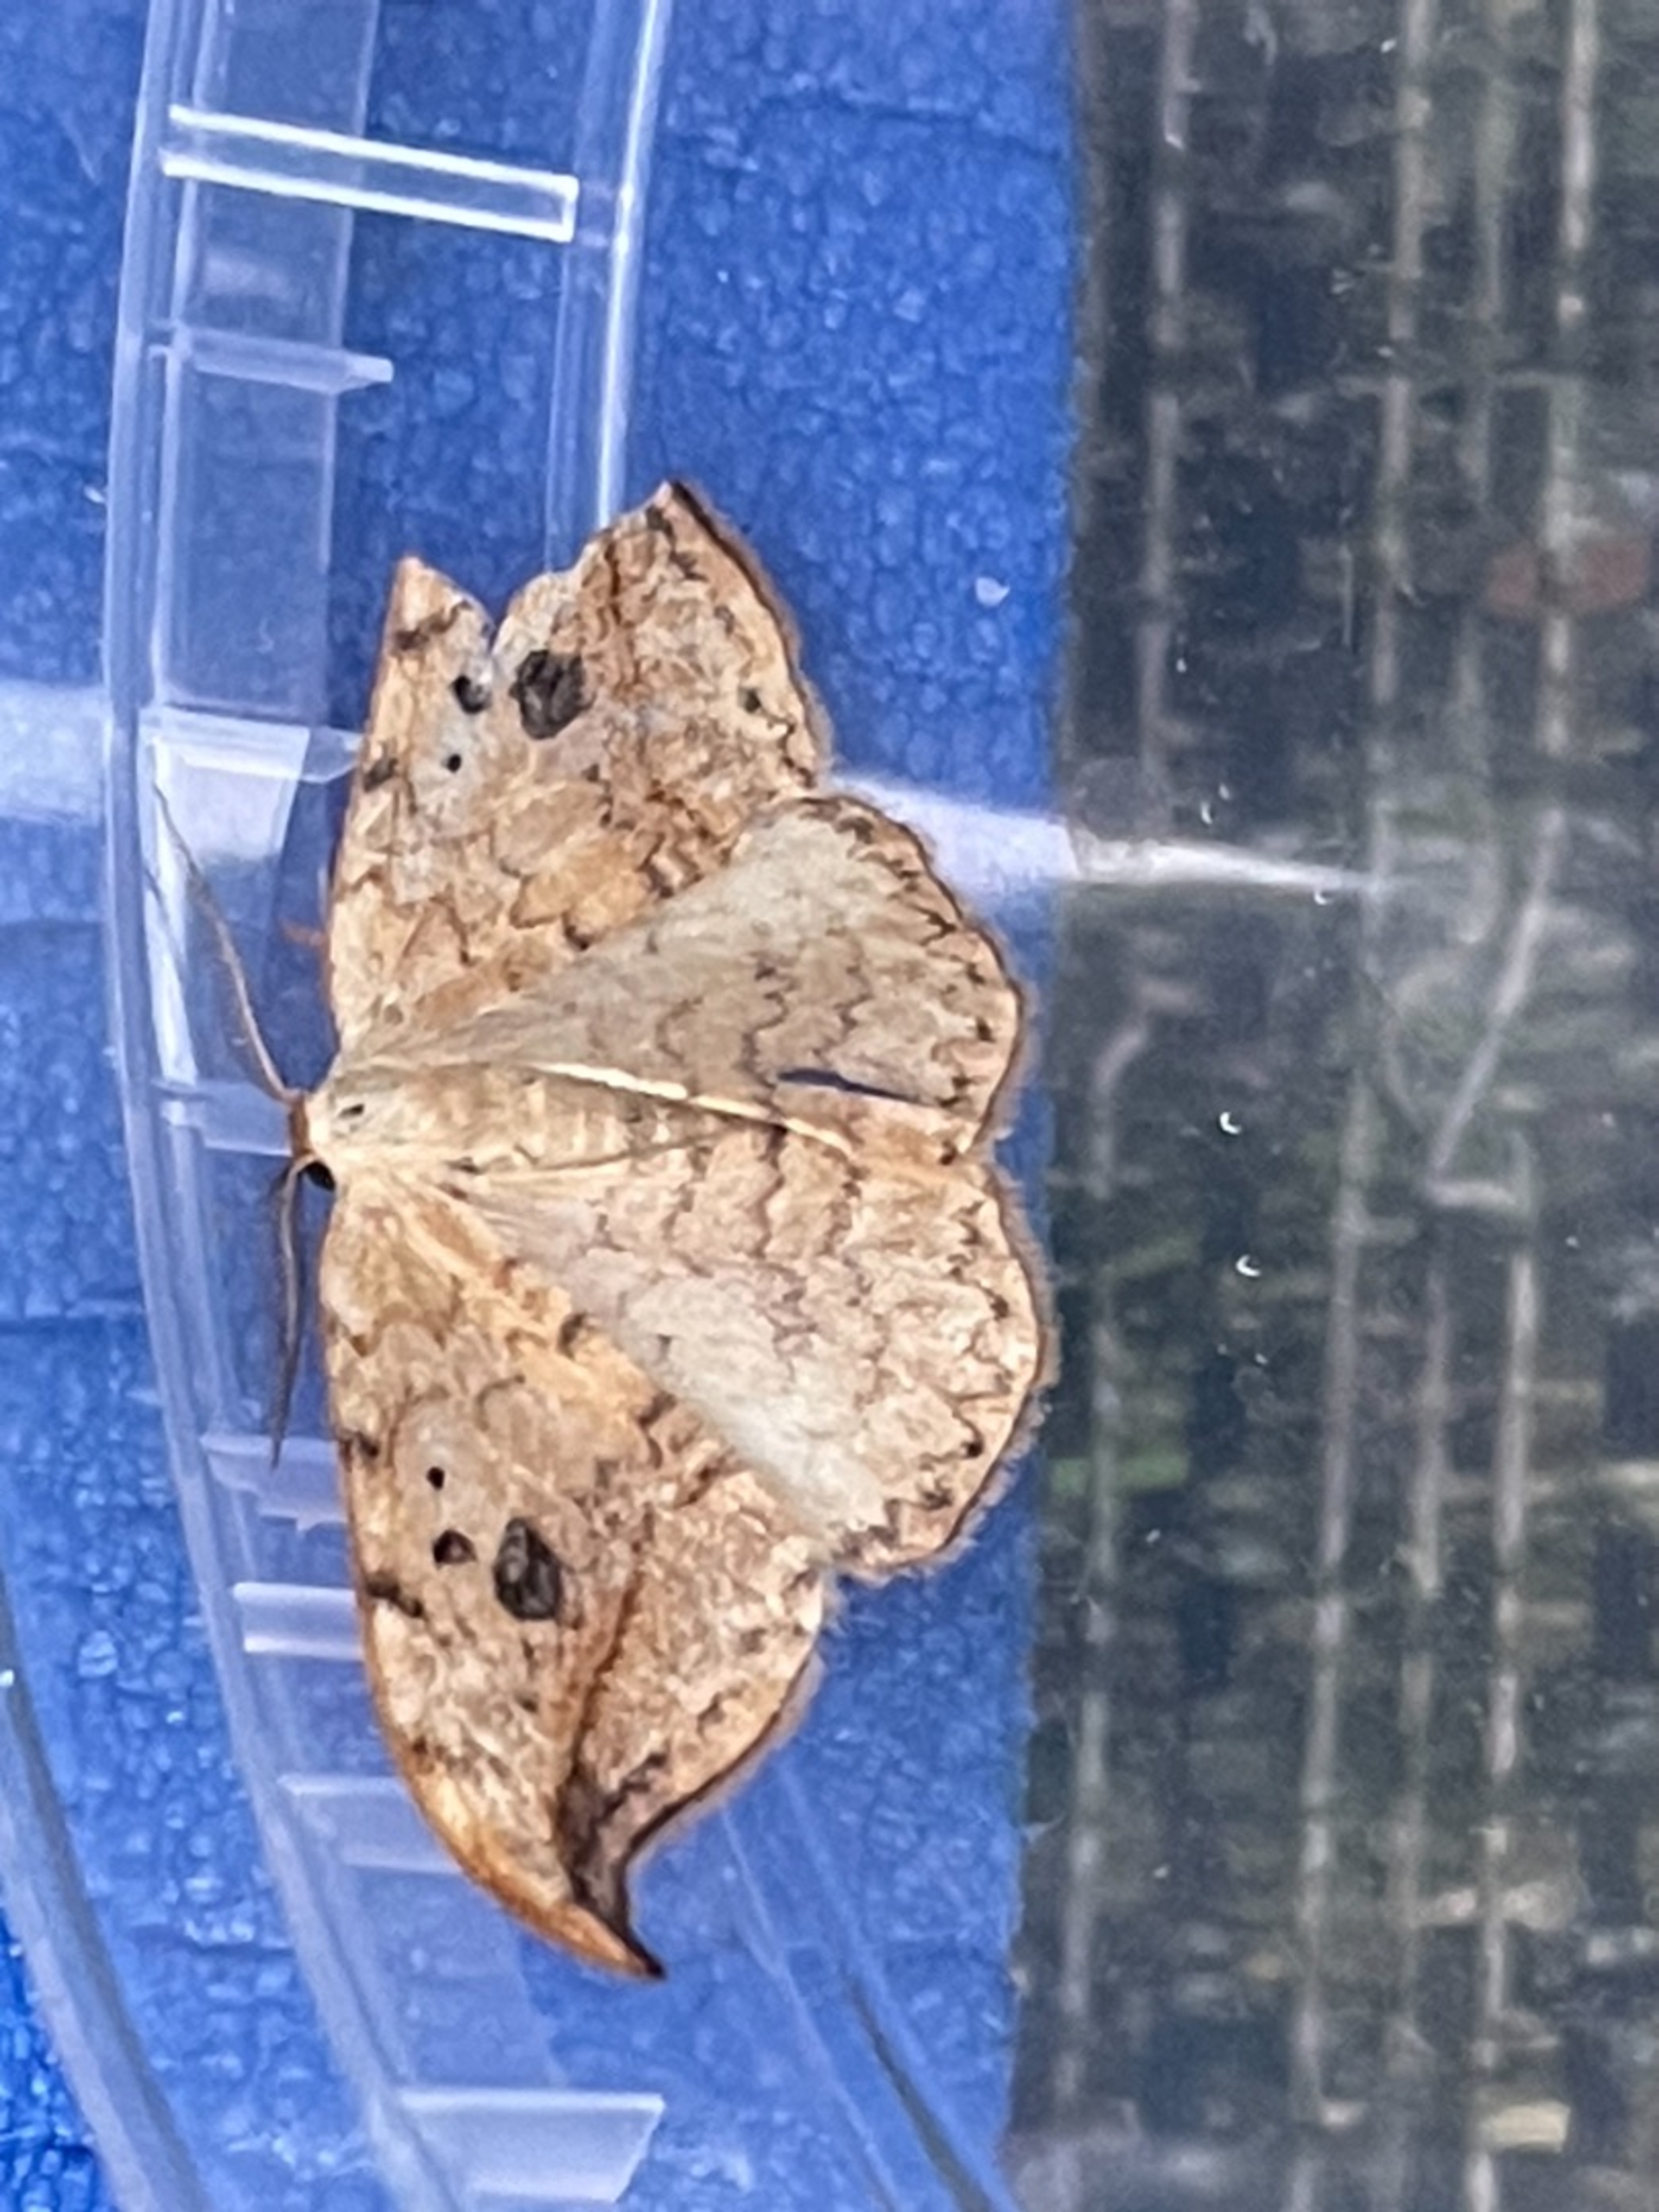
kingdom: Animalia
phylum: Arthropoda
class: Insecta
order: Lepidoptera
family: Drepanidae
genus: Drepana
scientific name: Drepana falcataria
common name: Birkeseglvinge
